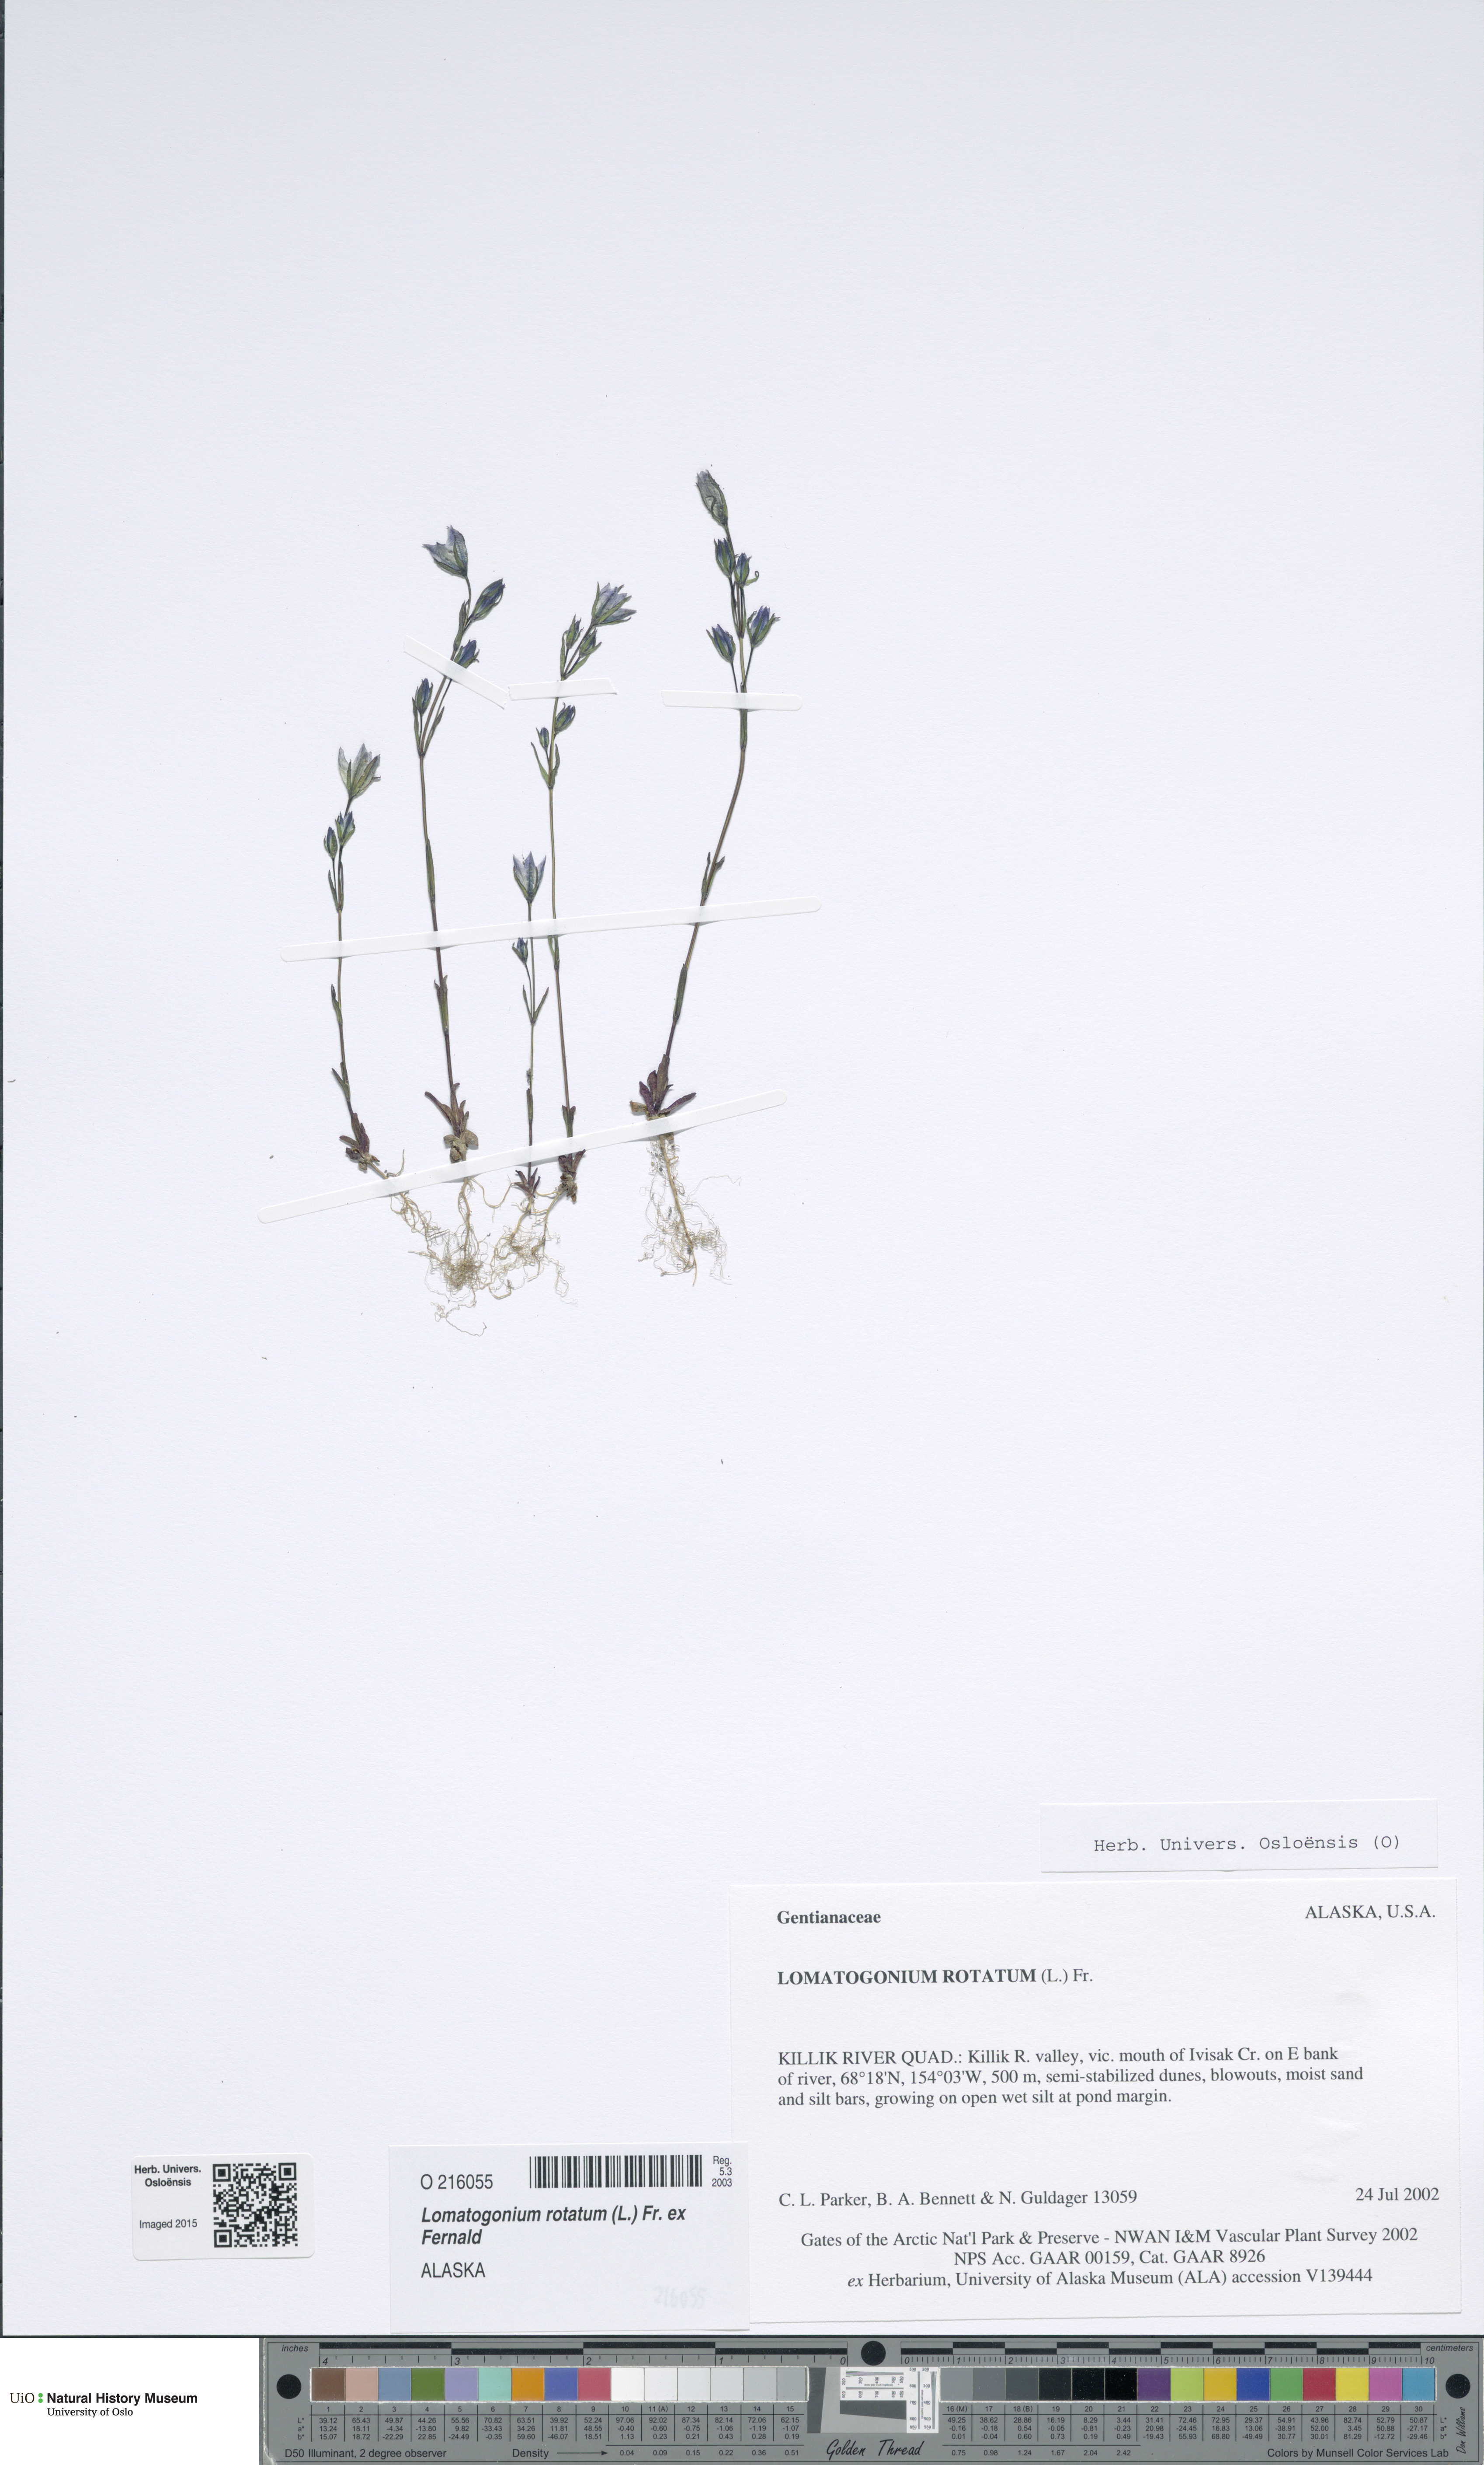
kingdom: Plantae
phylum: Tracheophyta
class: Magnoliopsida
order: Gentianales
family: Gentianaceae
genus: Lomatogonium
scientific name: Lomatogonium rotatum
